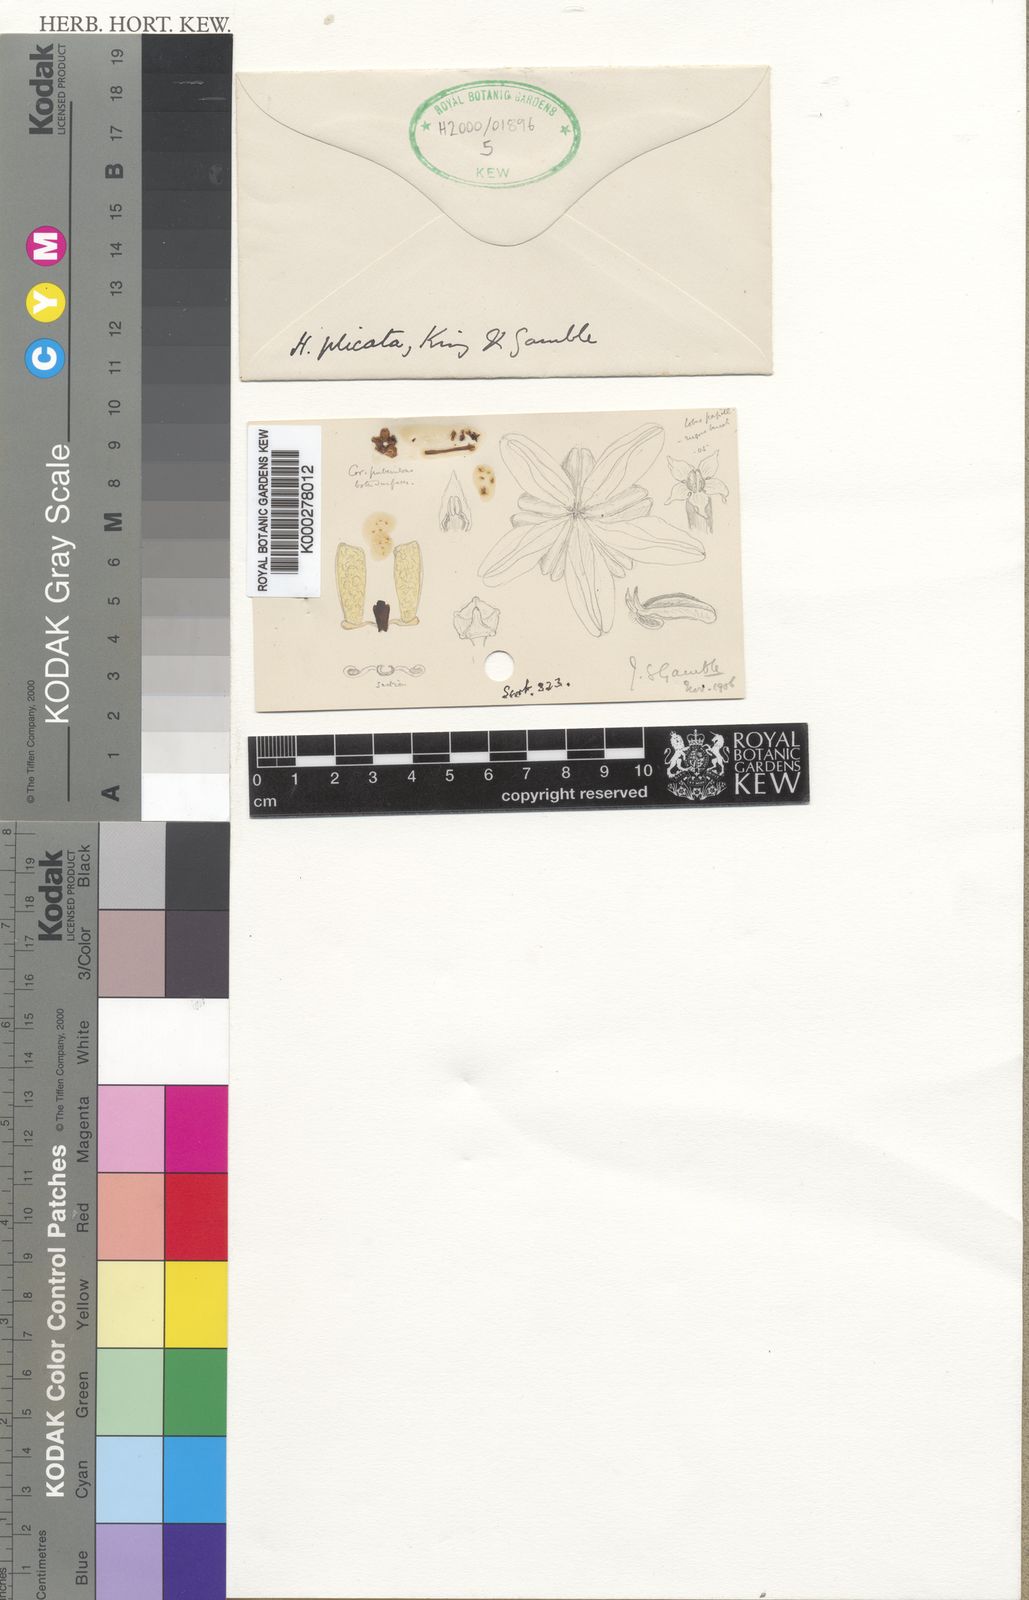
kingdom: Plantae
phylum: Tracheophyta
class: Magnoliopsida
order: Gentianales
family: Apocynaceae
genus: Hoya
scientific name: Hoya micrantha
